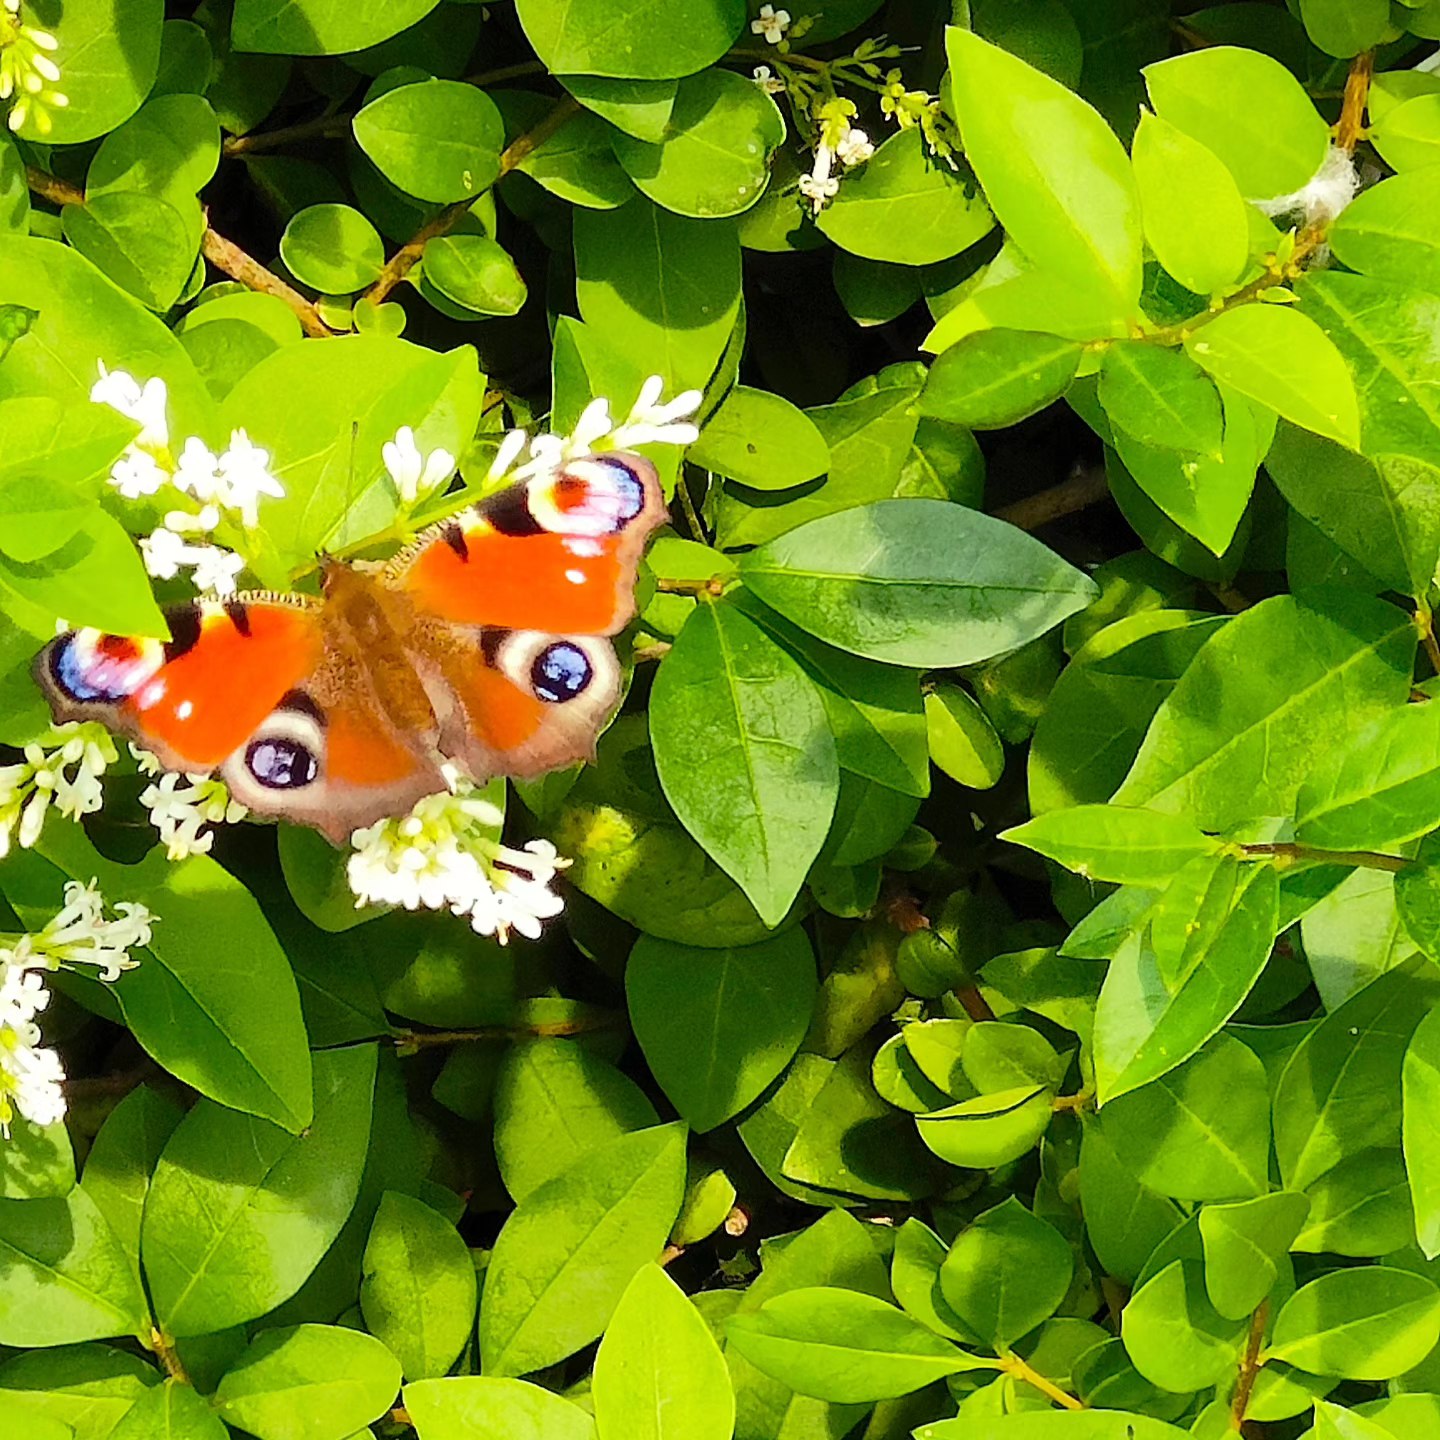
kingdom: Animalia
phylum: Arthropoda
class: Insecta
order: Lepidoptera
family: Nymphalidae
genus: Aglais
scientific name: Aglais io
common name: Dagpåfugleøje
